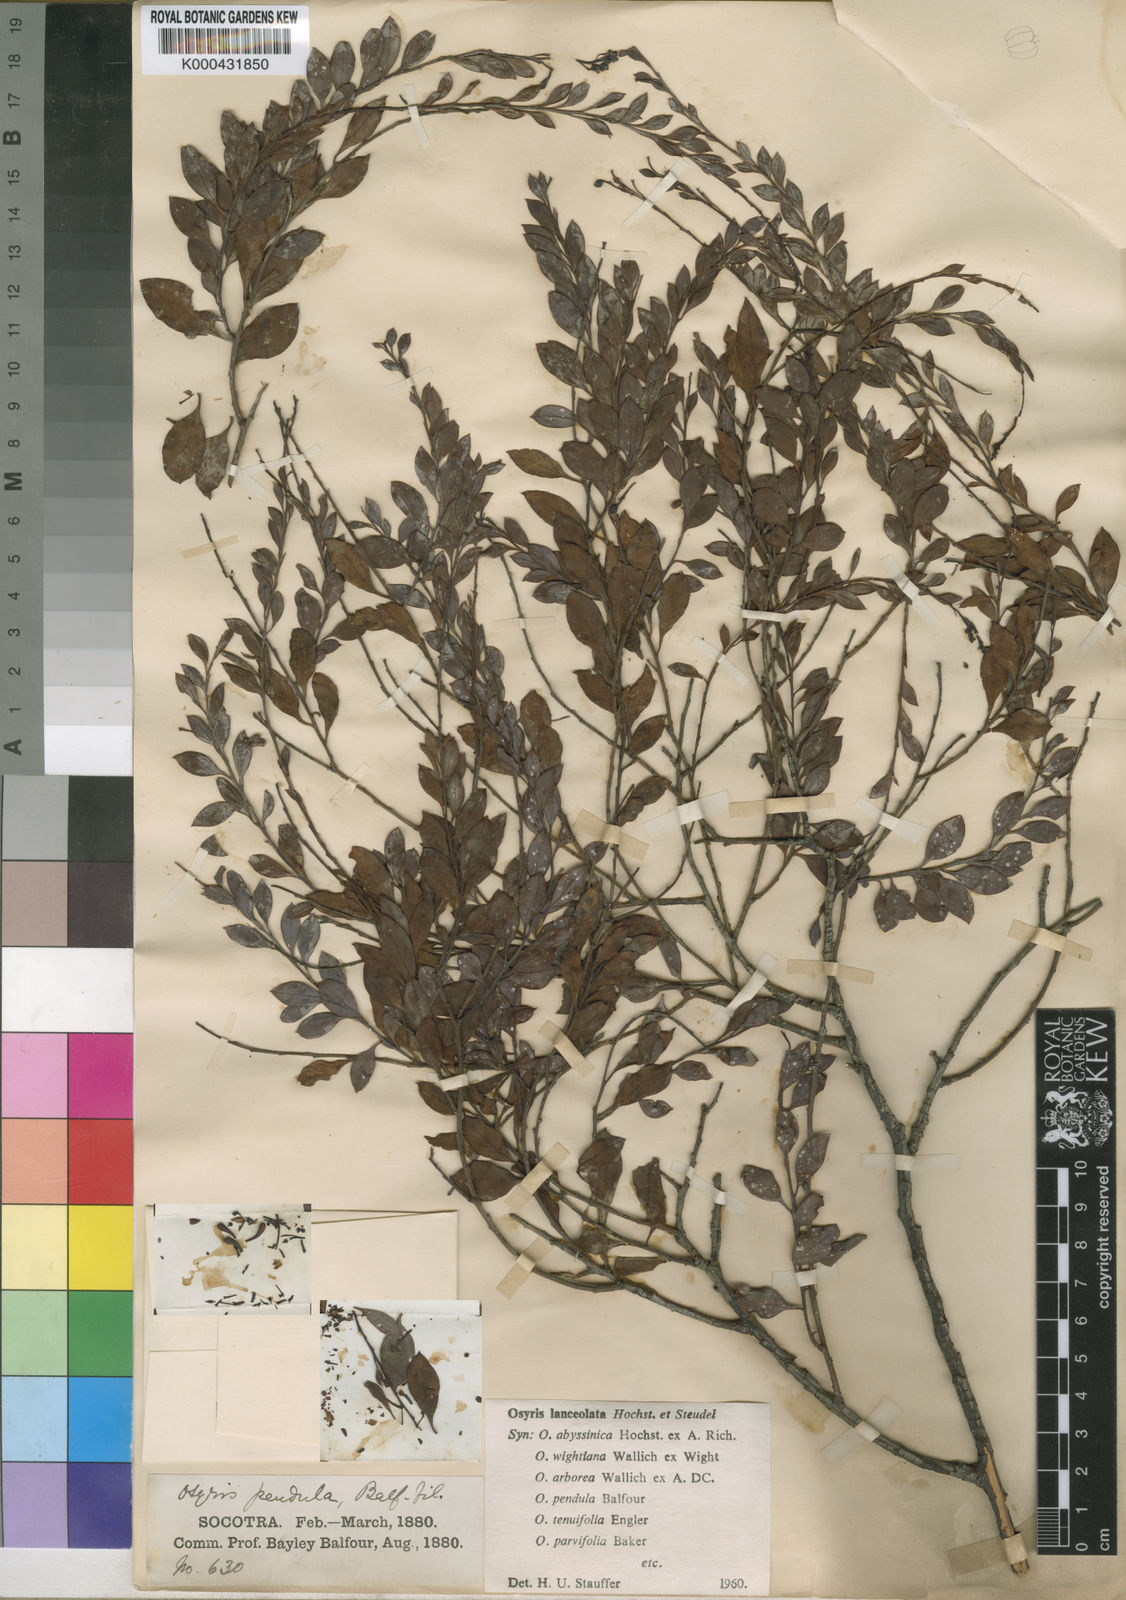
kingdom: Plantae
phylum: Tracheophyta
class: Magnoliopsida
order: Santalales
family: Santalaceae
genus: Osyris
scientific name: Osyris lanceolata
